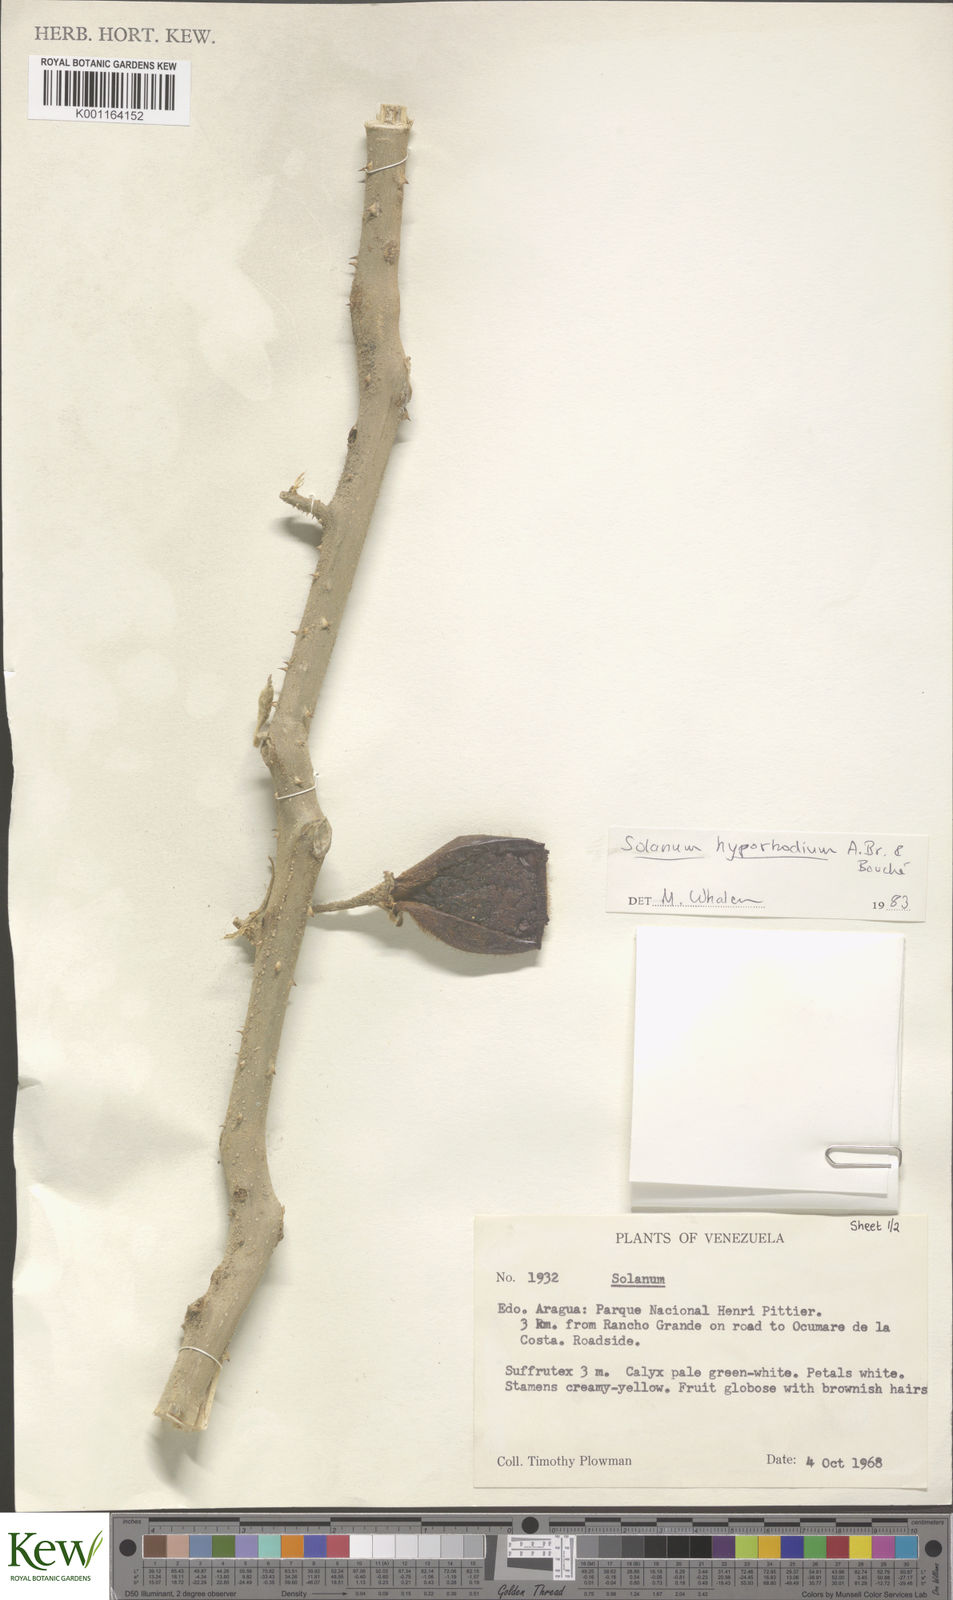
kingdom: Plantae
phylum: Tracheophyta
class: Magnoliopsida
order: Solanales
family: Solanaceae
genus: Solanum
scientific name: Solanum hyporhodium
